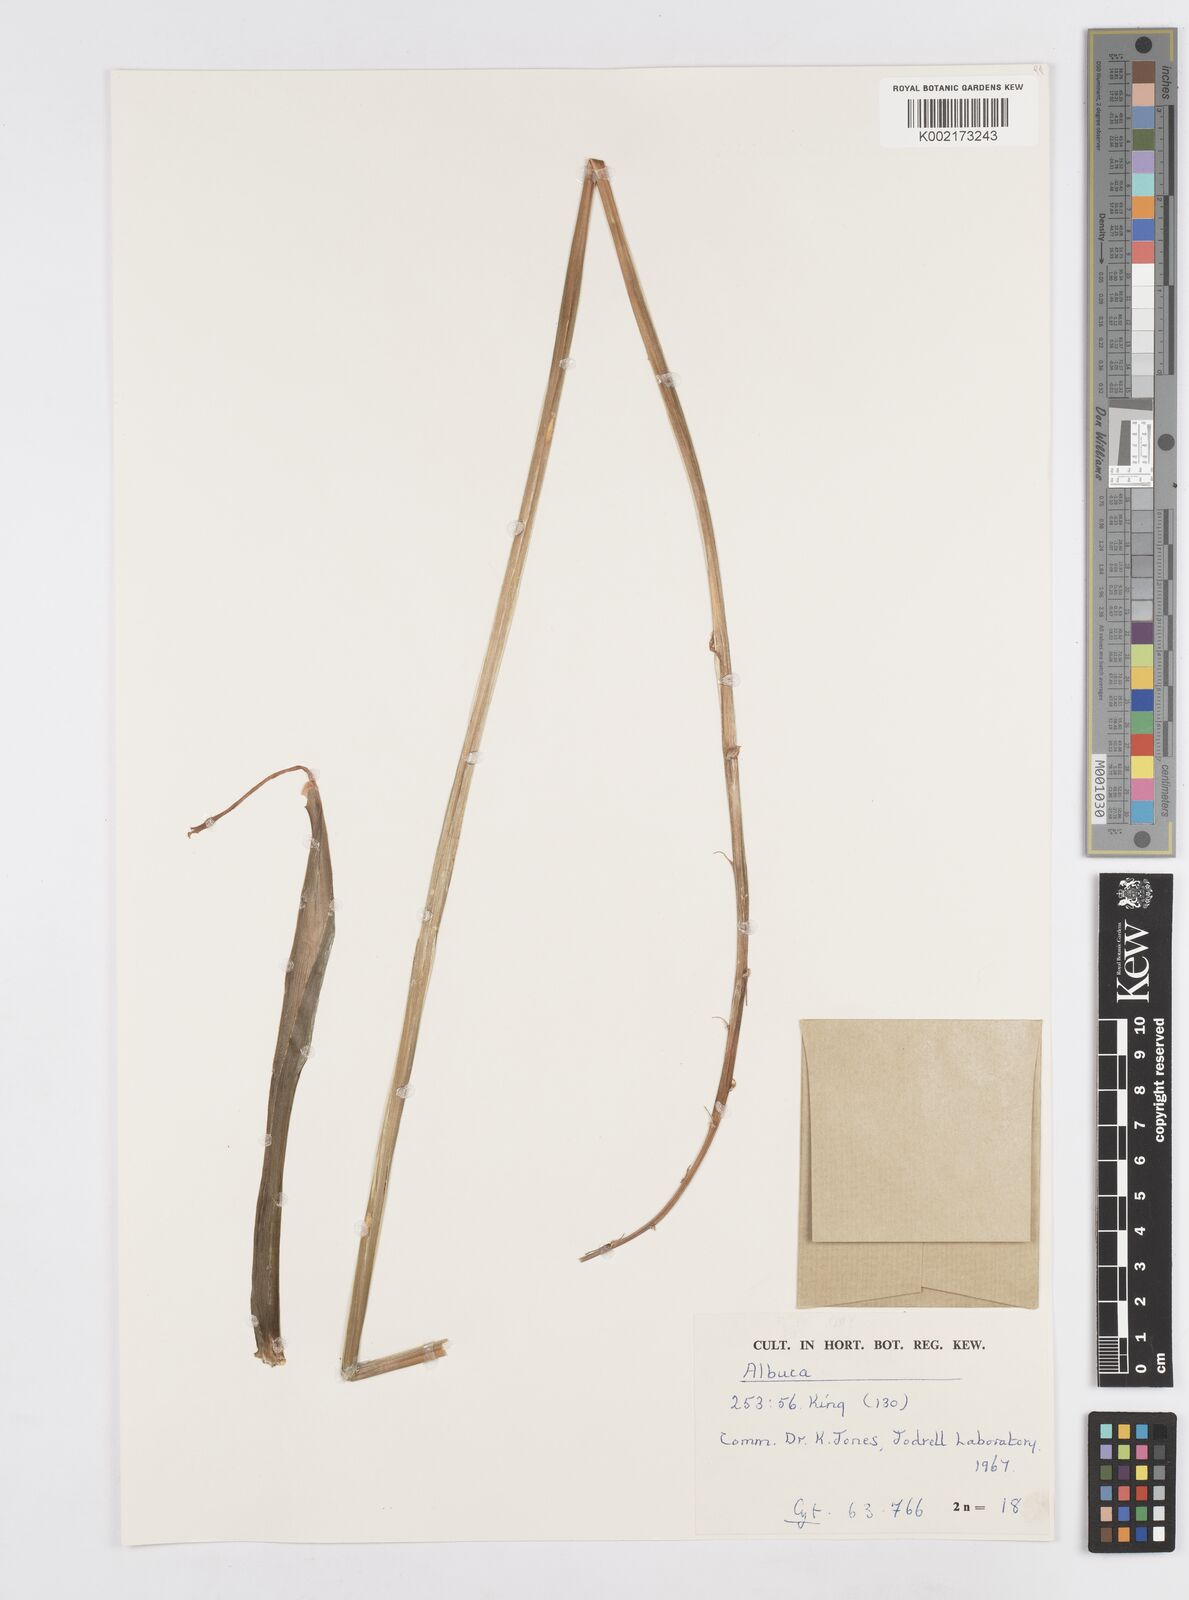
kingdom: Plantae
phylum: Tracheophyta
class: Liliopsida
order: Asparagales
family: Asparagaceae
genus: Albuca
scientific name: Albuca
